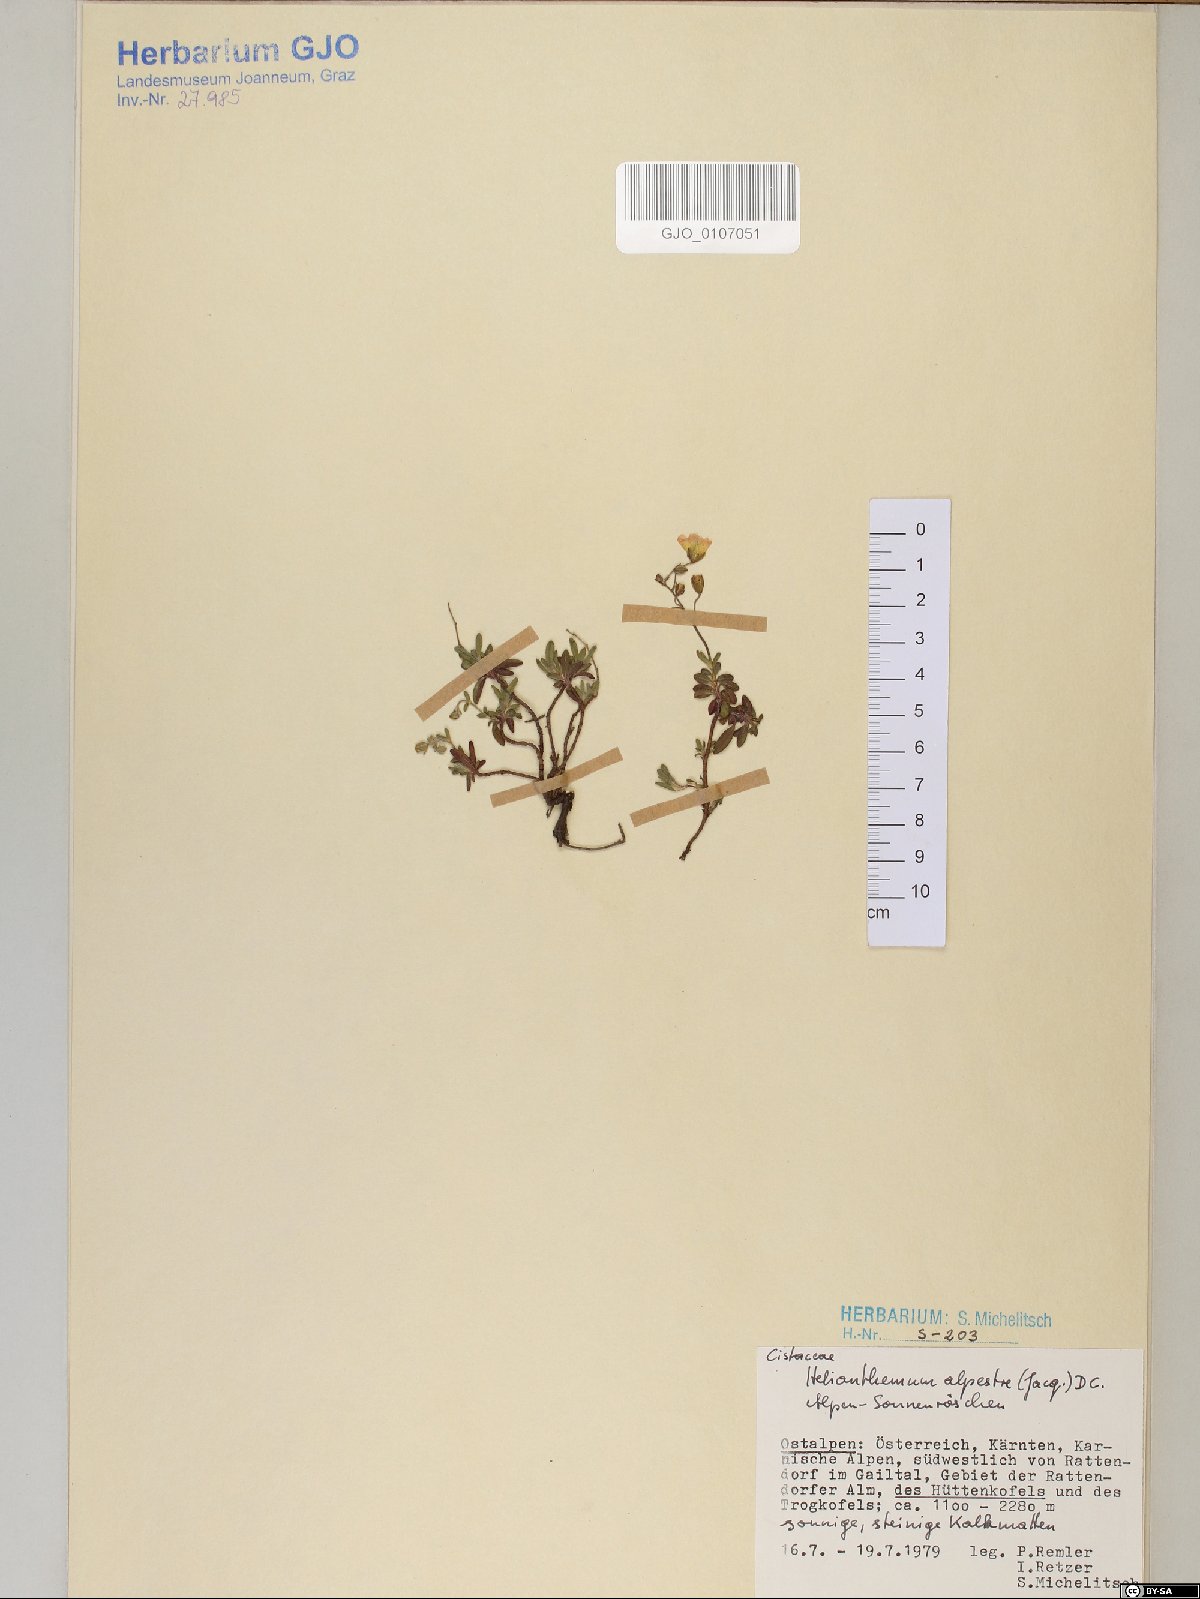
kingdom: Plantae
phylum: Tracheophyta
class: Magnoliopsida
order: Malvales
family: Cistaceae
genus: Helianthemum
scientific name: Helianthemum alpestre
